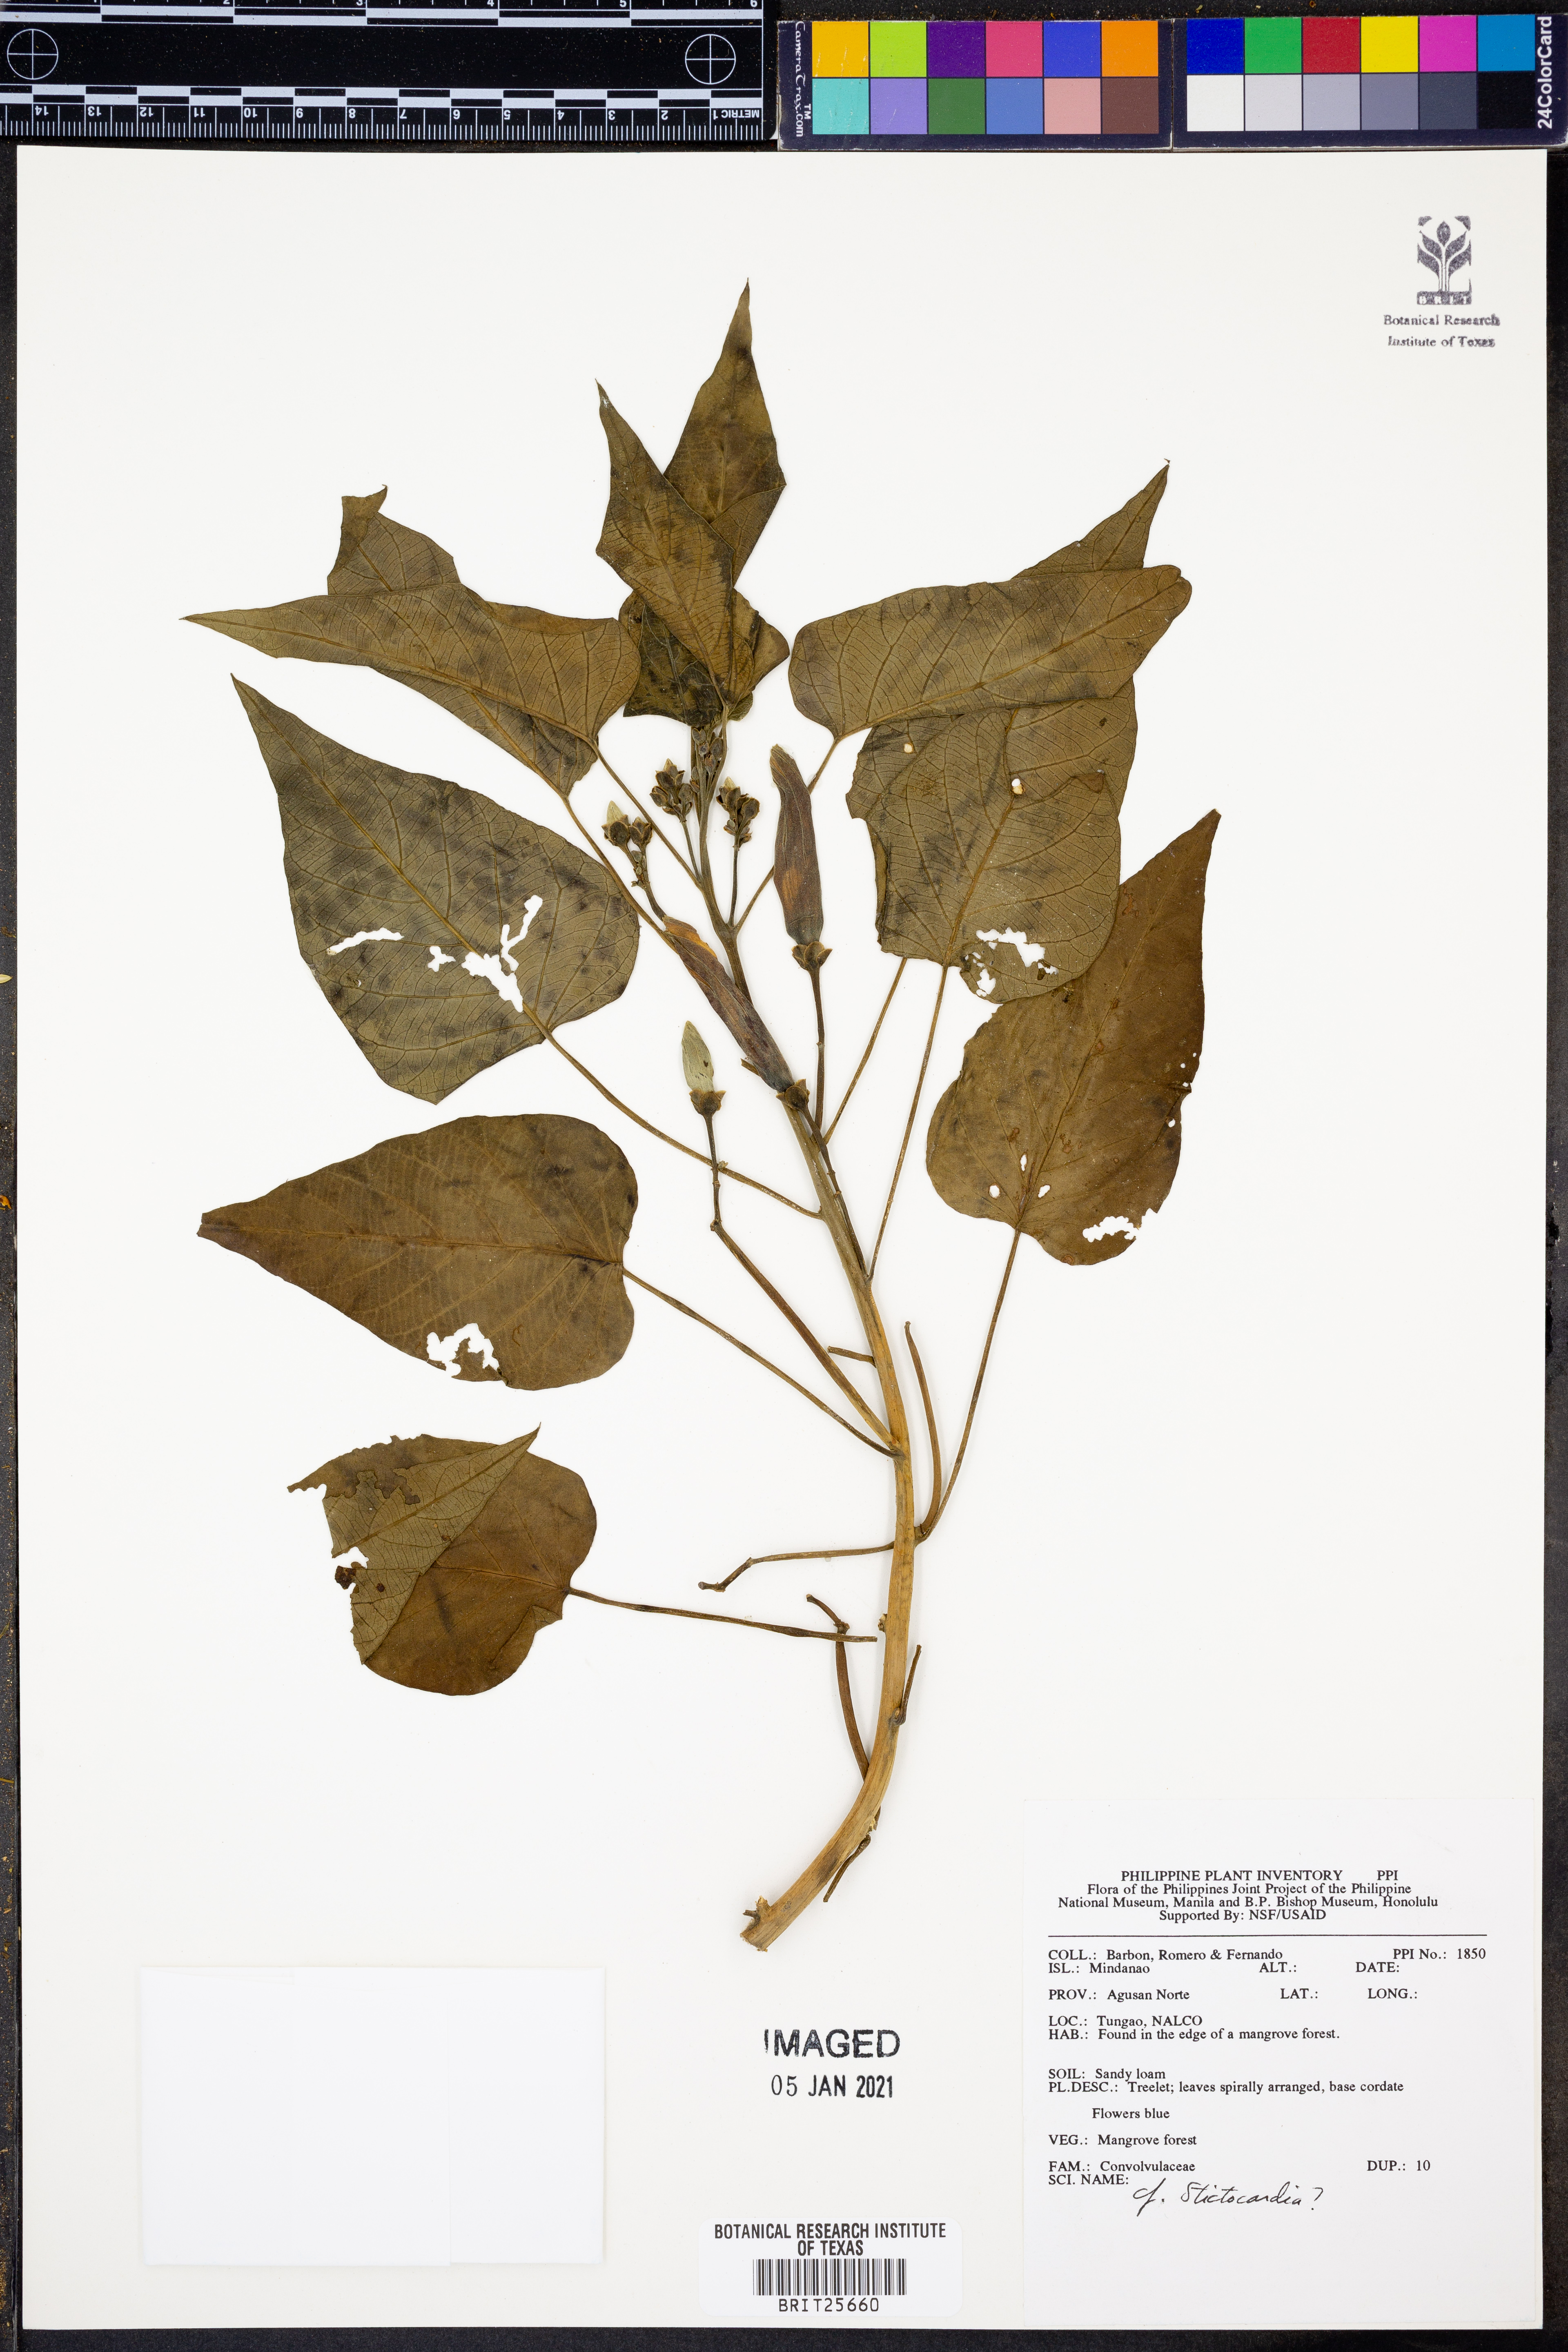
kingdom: Plantae
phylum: Tracheophyta
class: Magnoliopsida
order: Solanales
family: Convolvulaceae
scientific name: Convolvulaceae
